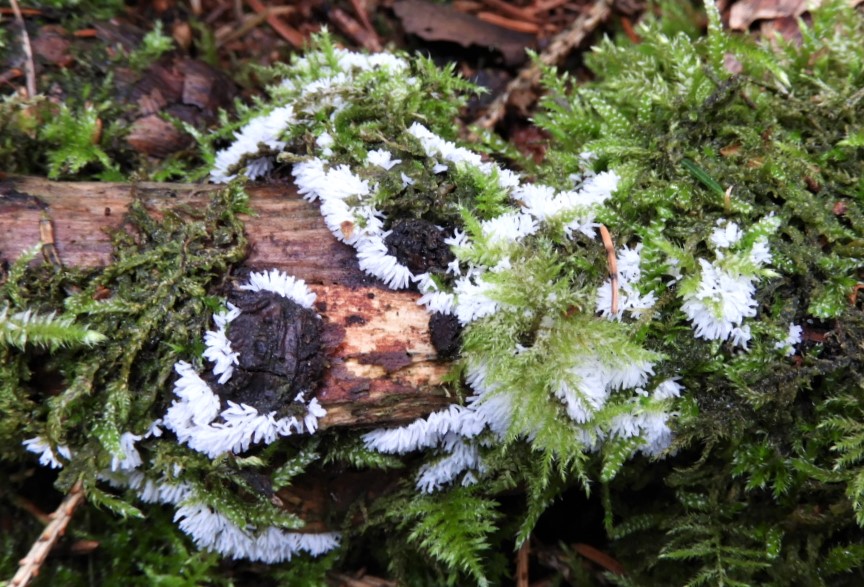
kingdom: Protozoa
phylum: Mycetozoa
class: Protosteliomycetes
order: Ceratiomyxales
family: Ceratiomyxaceae
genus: Ceratiomyxa
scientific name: Ceratiomyxa fruticulosa
